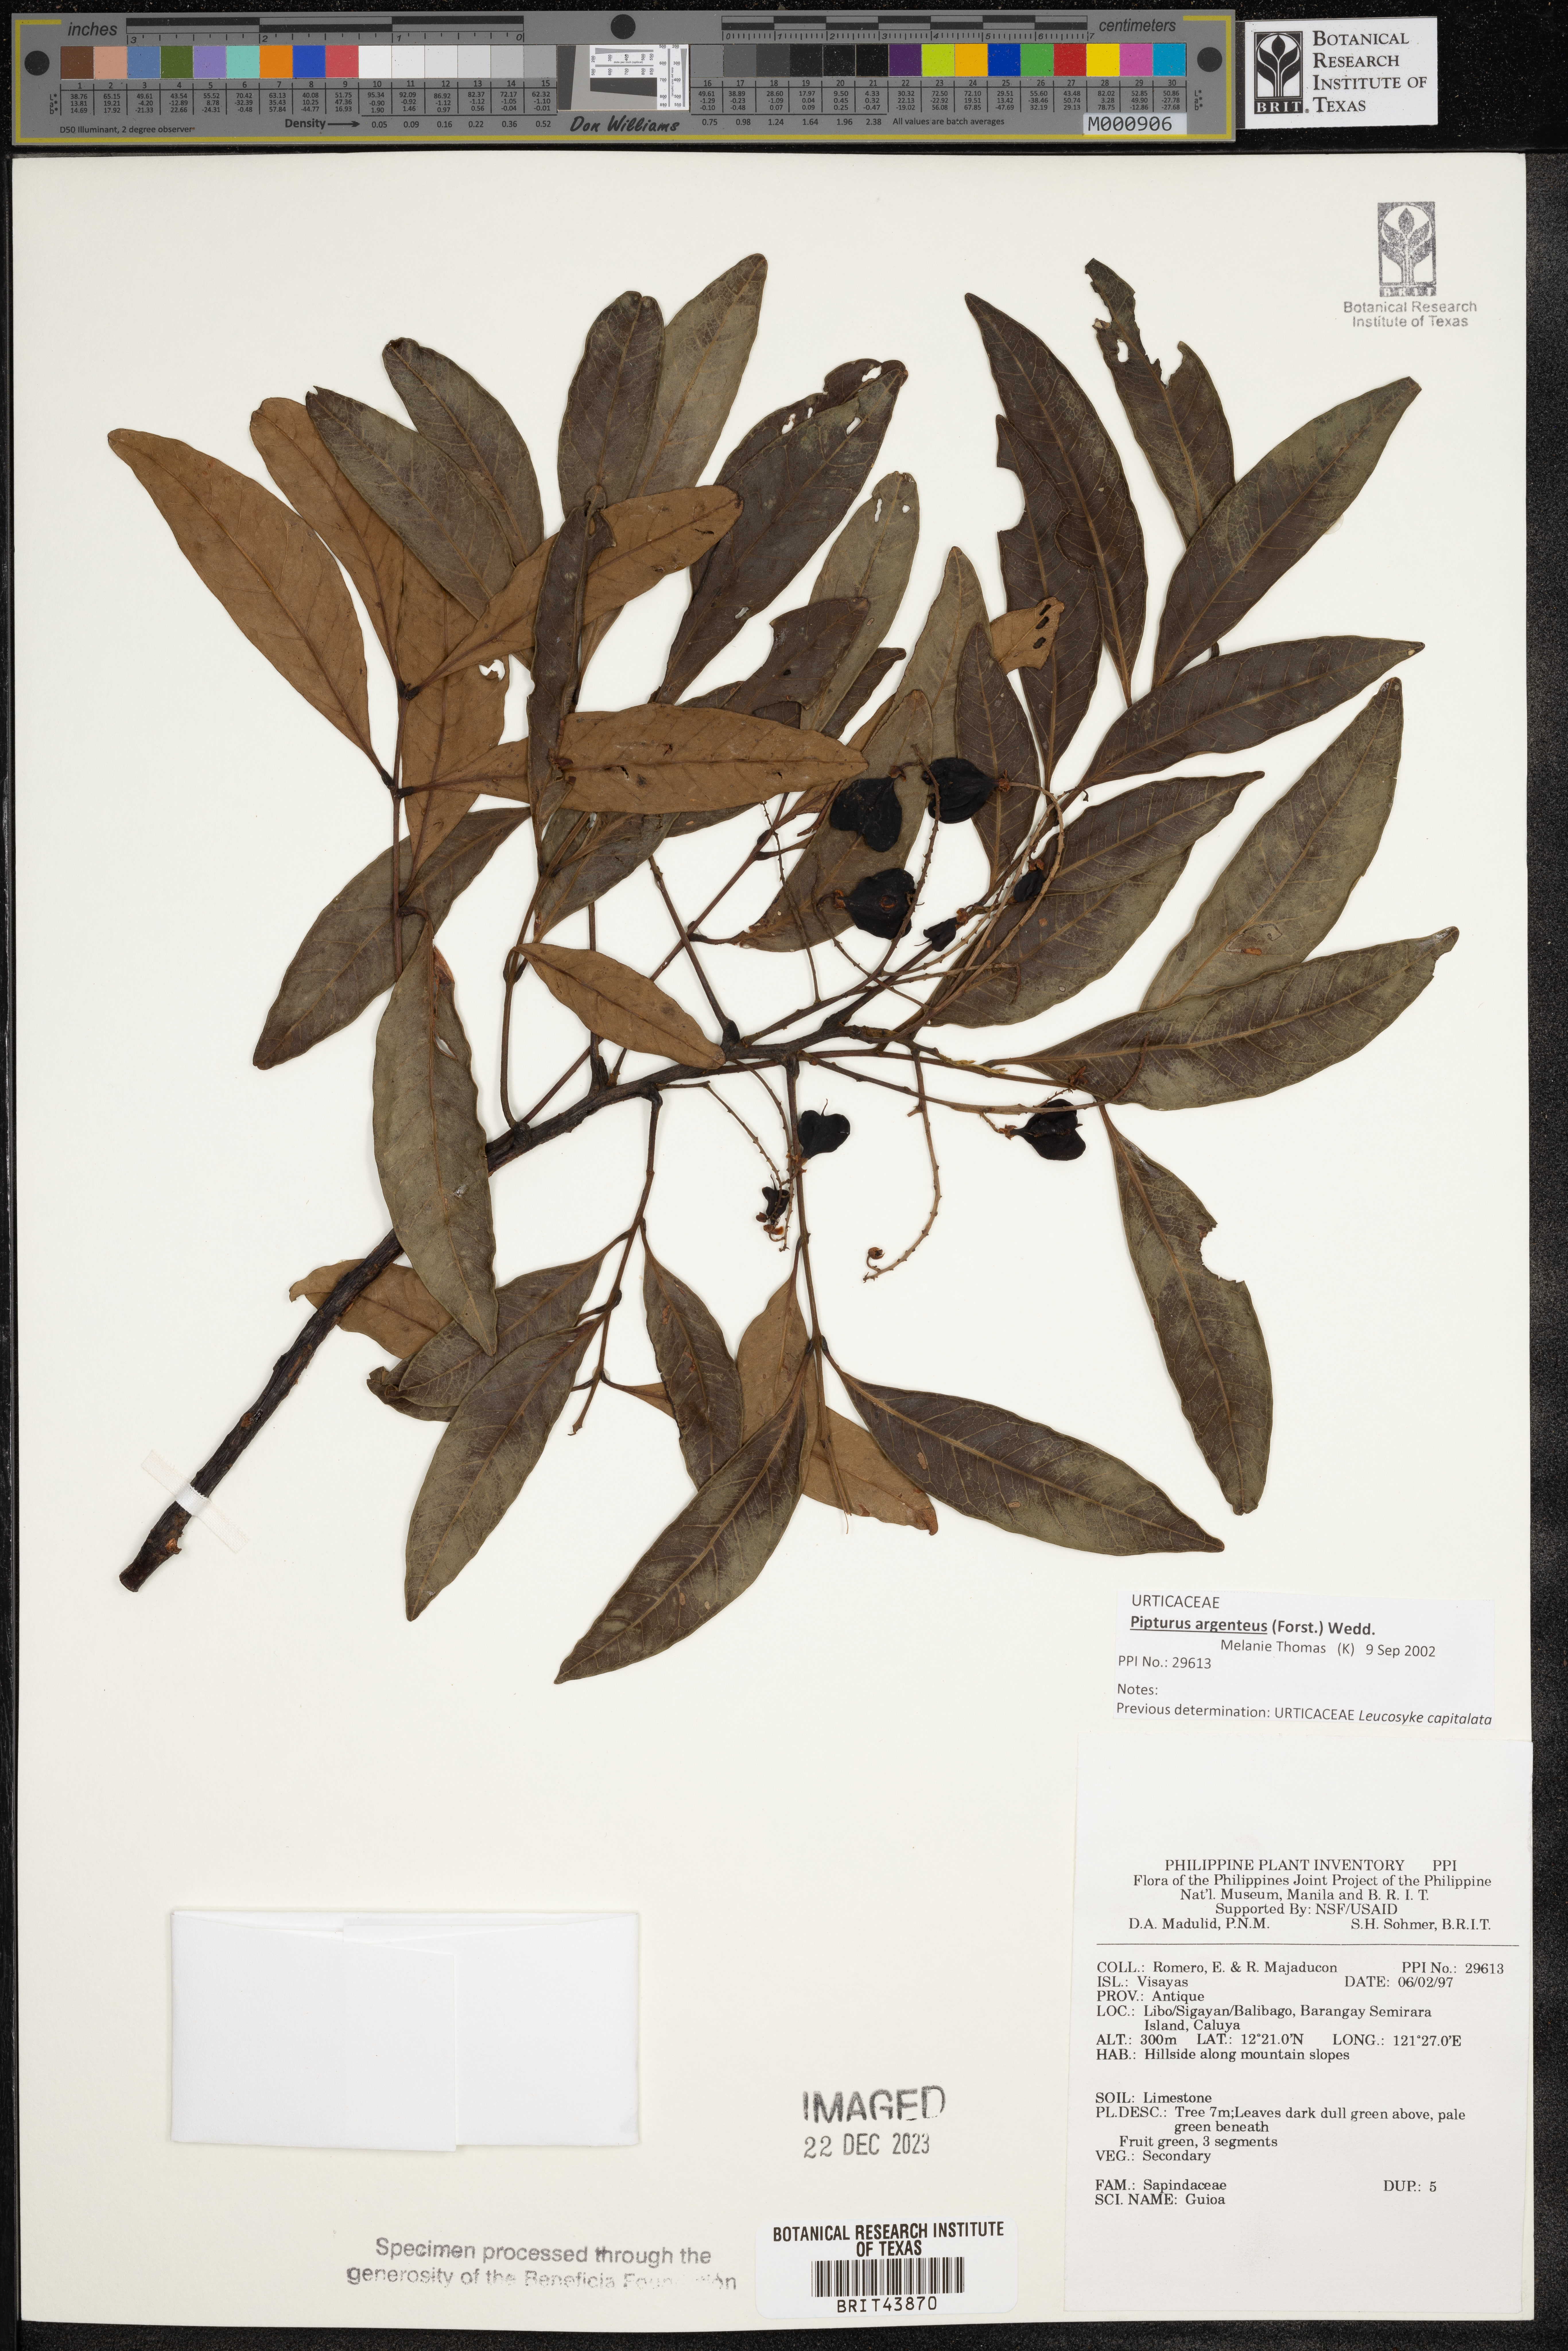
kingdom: Plantae
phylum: Tracheophyta
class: Magnoliopsida
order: Sapindales
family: Sapindaceae
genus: Guioa
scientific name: Guioa
